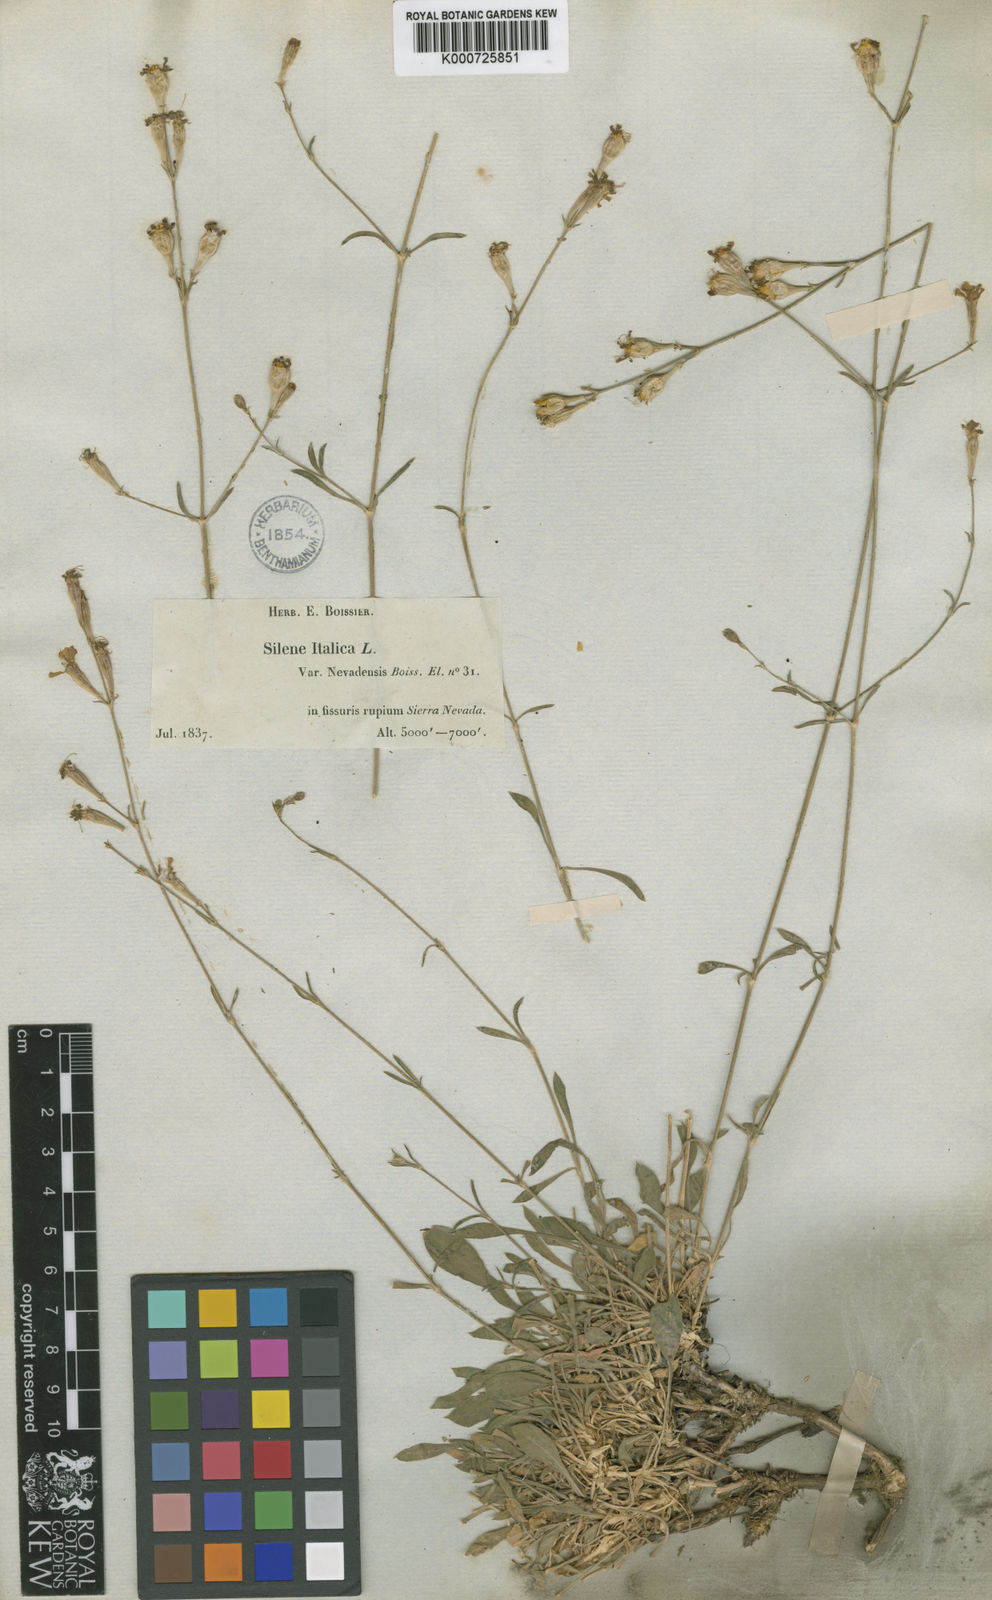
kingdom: Plantae
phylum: Tracheophyta
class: Magnoliopsida
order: Caryophyllales
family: Caryophyllaceae
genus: Silene
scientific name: Silene patula
